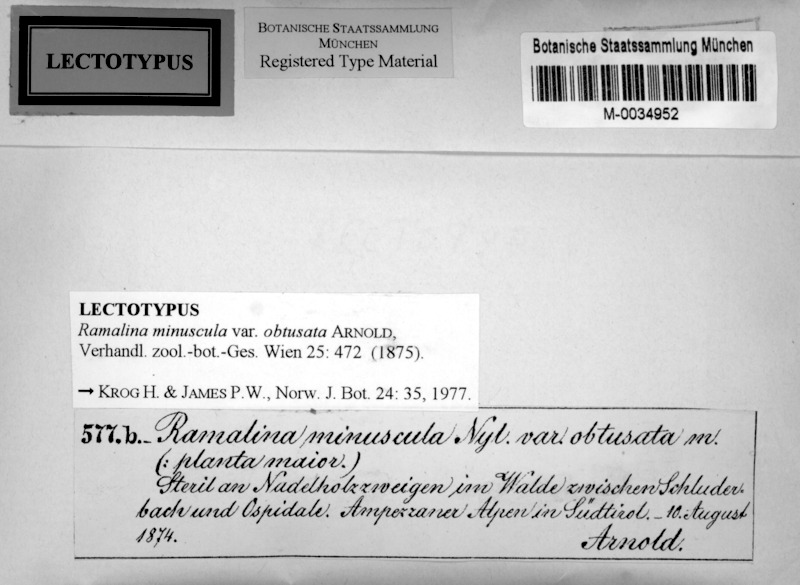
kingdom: Fungi
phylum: Ascomycota
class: Lecanoromycetes
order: Lecanorales
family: Ramalinaceae
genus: Ramalina
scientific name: Ramalina obtusata
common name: Hooded ribbon lichen
